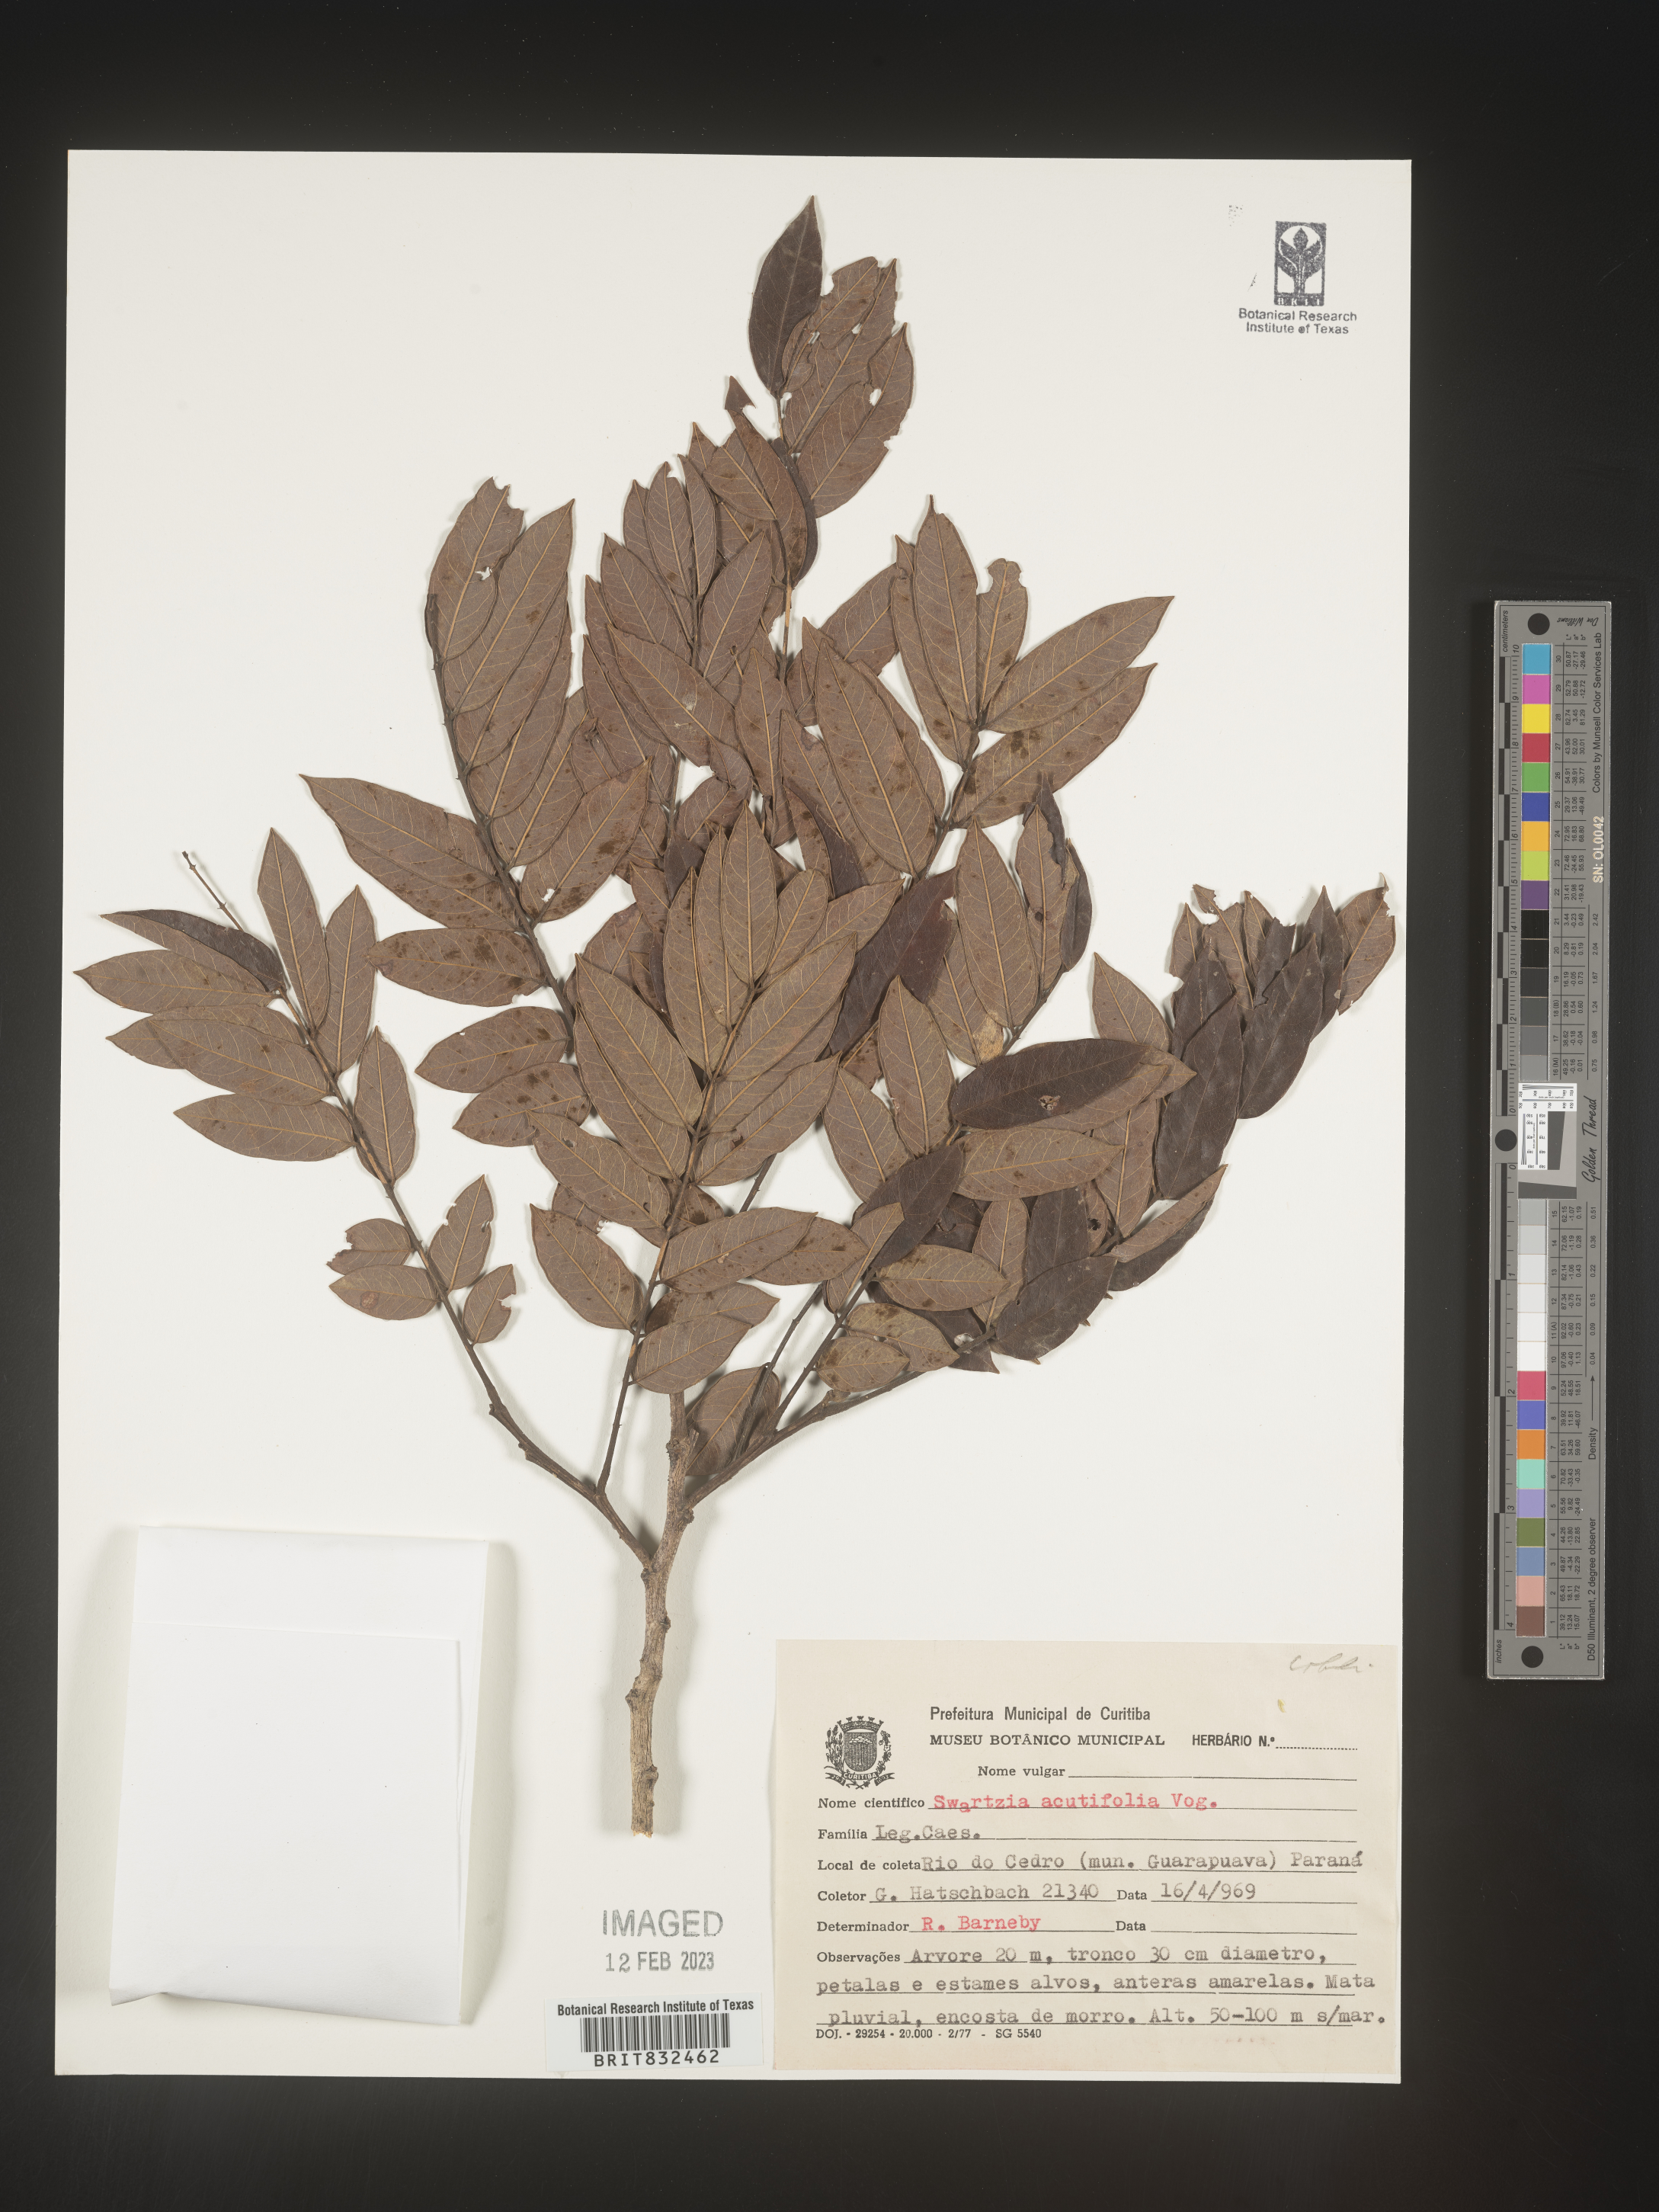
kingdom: Plantae
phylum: Tracheophyta
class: Magnoliopsida
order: Fabales
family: Fabaceae
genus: Swartzia
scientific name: Swartzia
